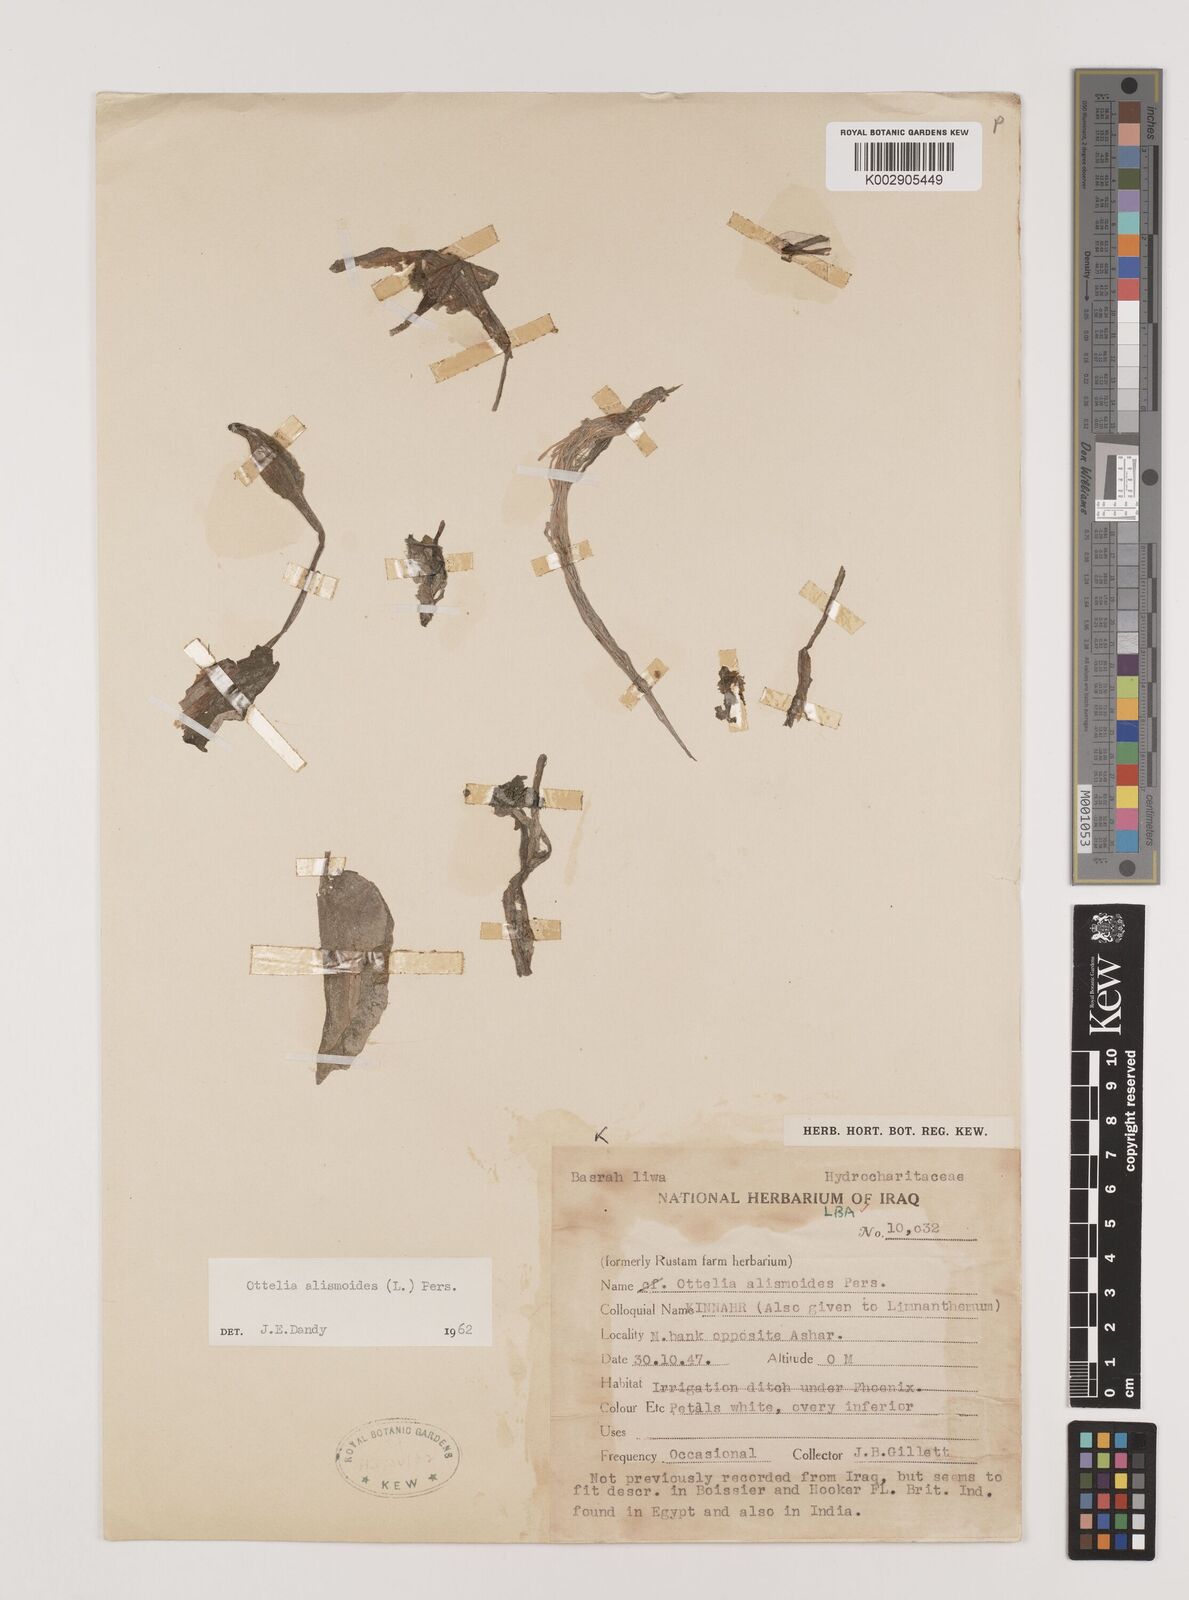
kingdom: Plantae
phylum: Tracheophyta
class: Liliopsida
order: Alismatales
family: Hydrocharitaceae
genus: Ottelia
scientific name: Ottelia alismoides
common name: Duck-lettuce
